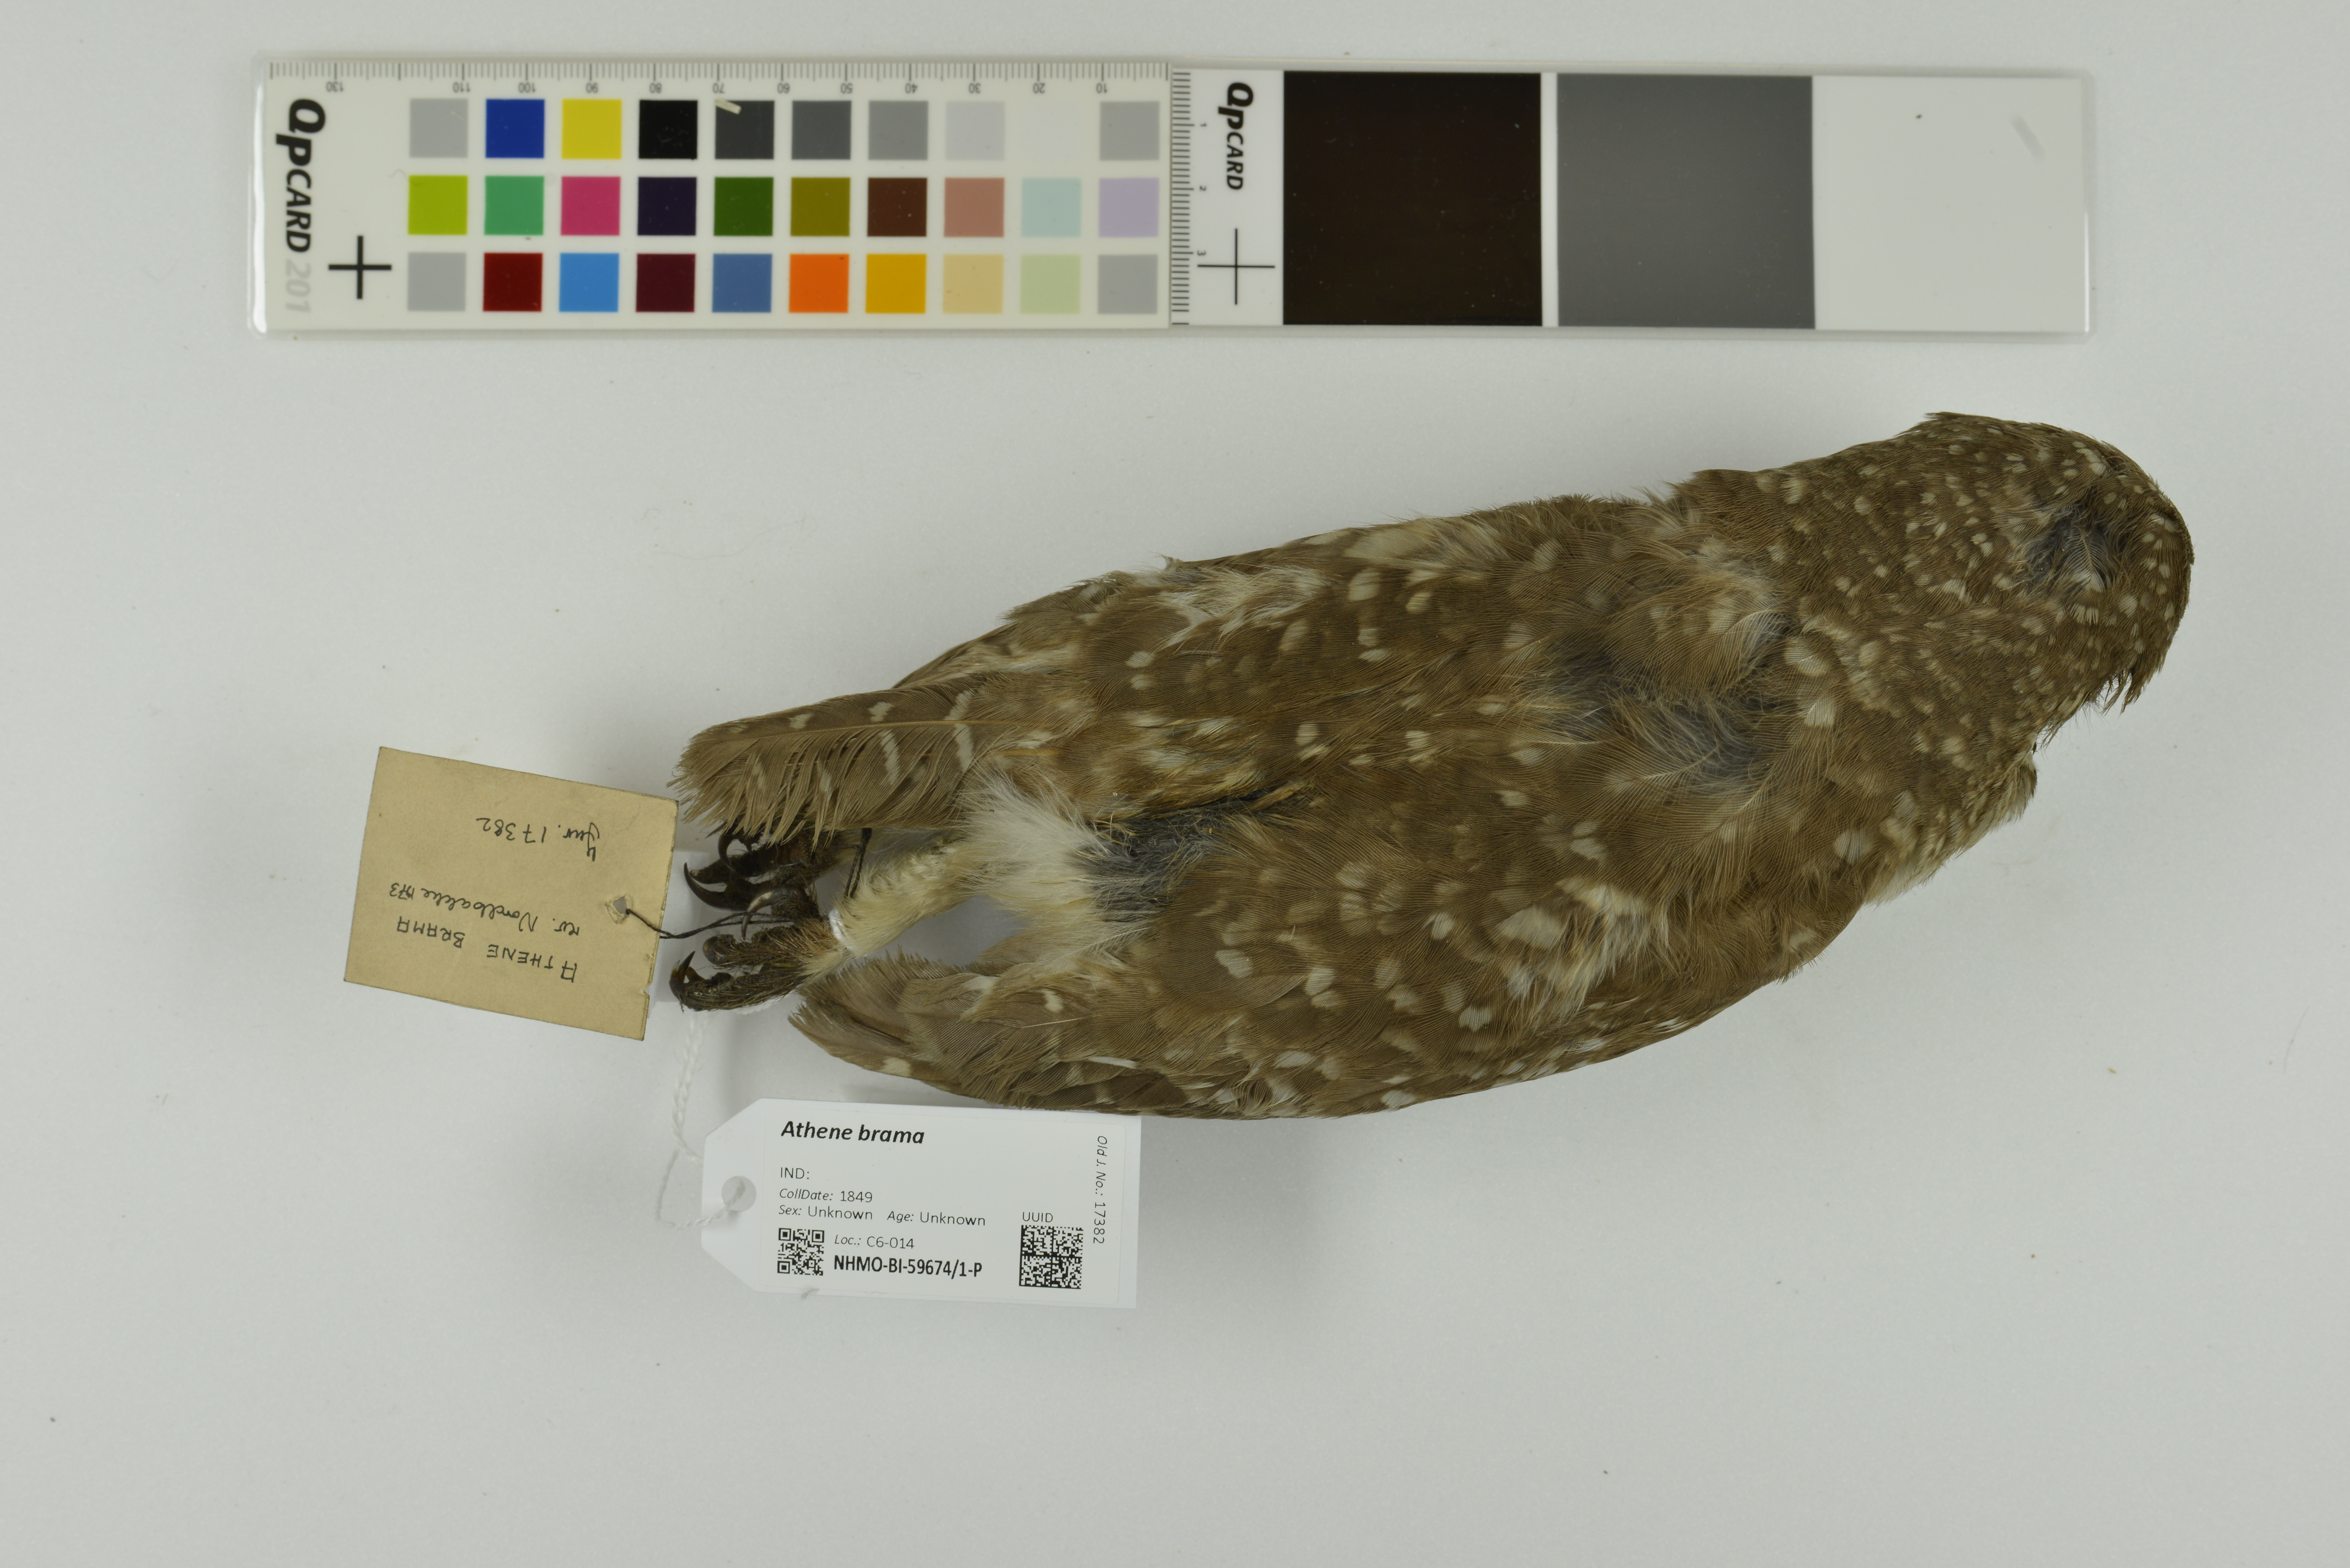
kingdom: Animalia
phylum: Chordata
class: Aves
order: Strigiformes
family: Strigidae
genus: Athene
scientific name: Athene brama
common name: Spotted owlet
